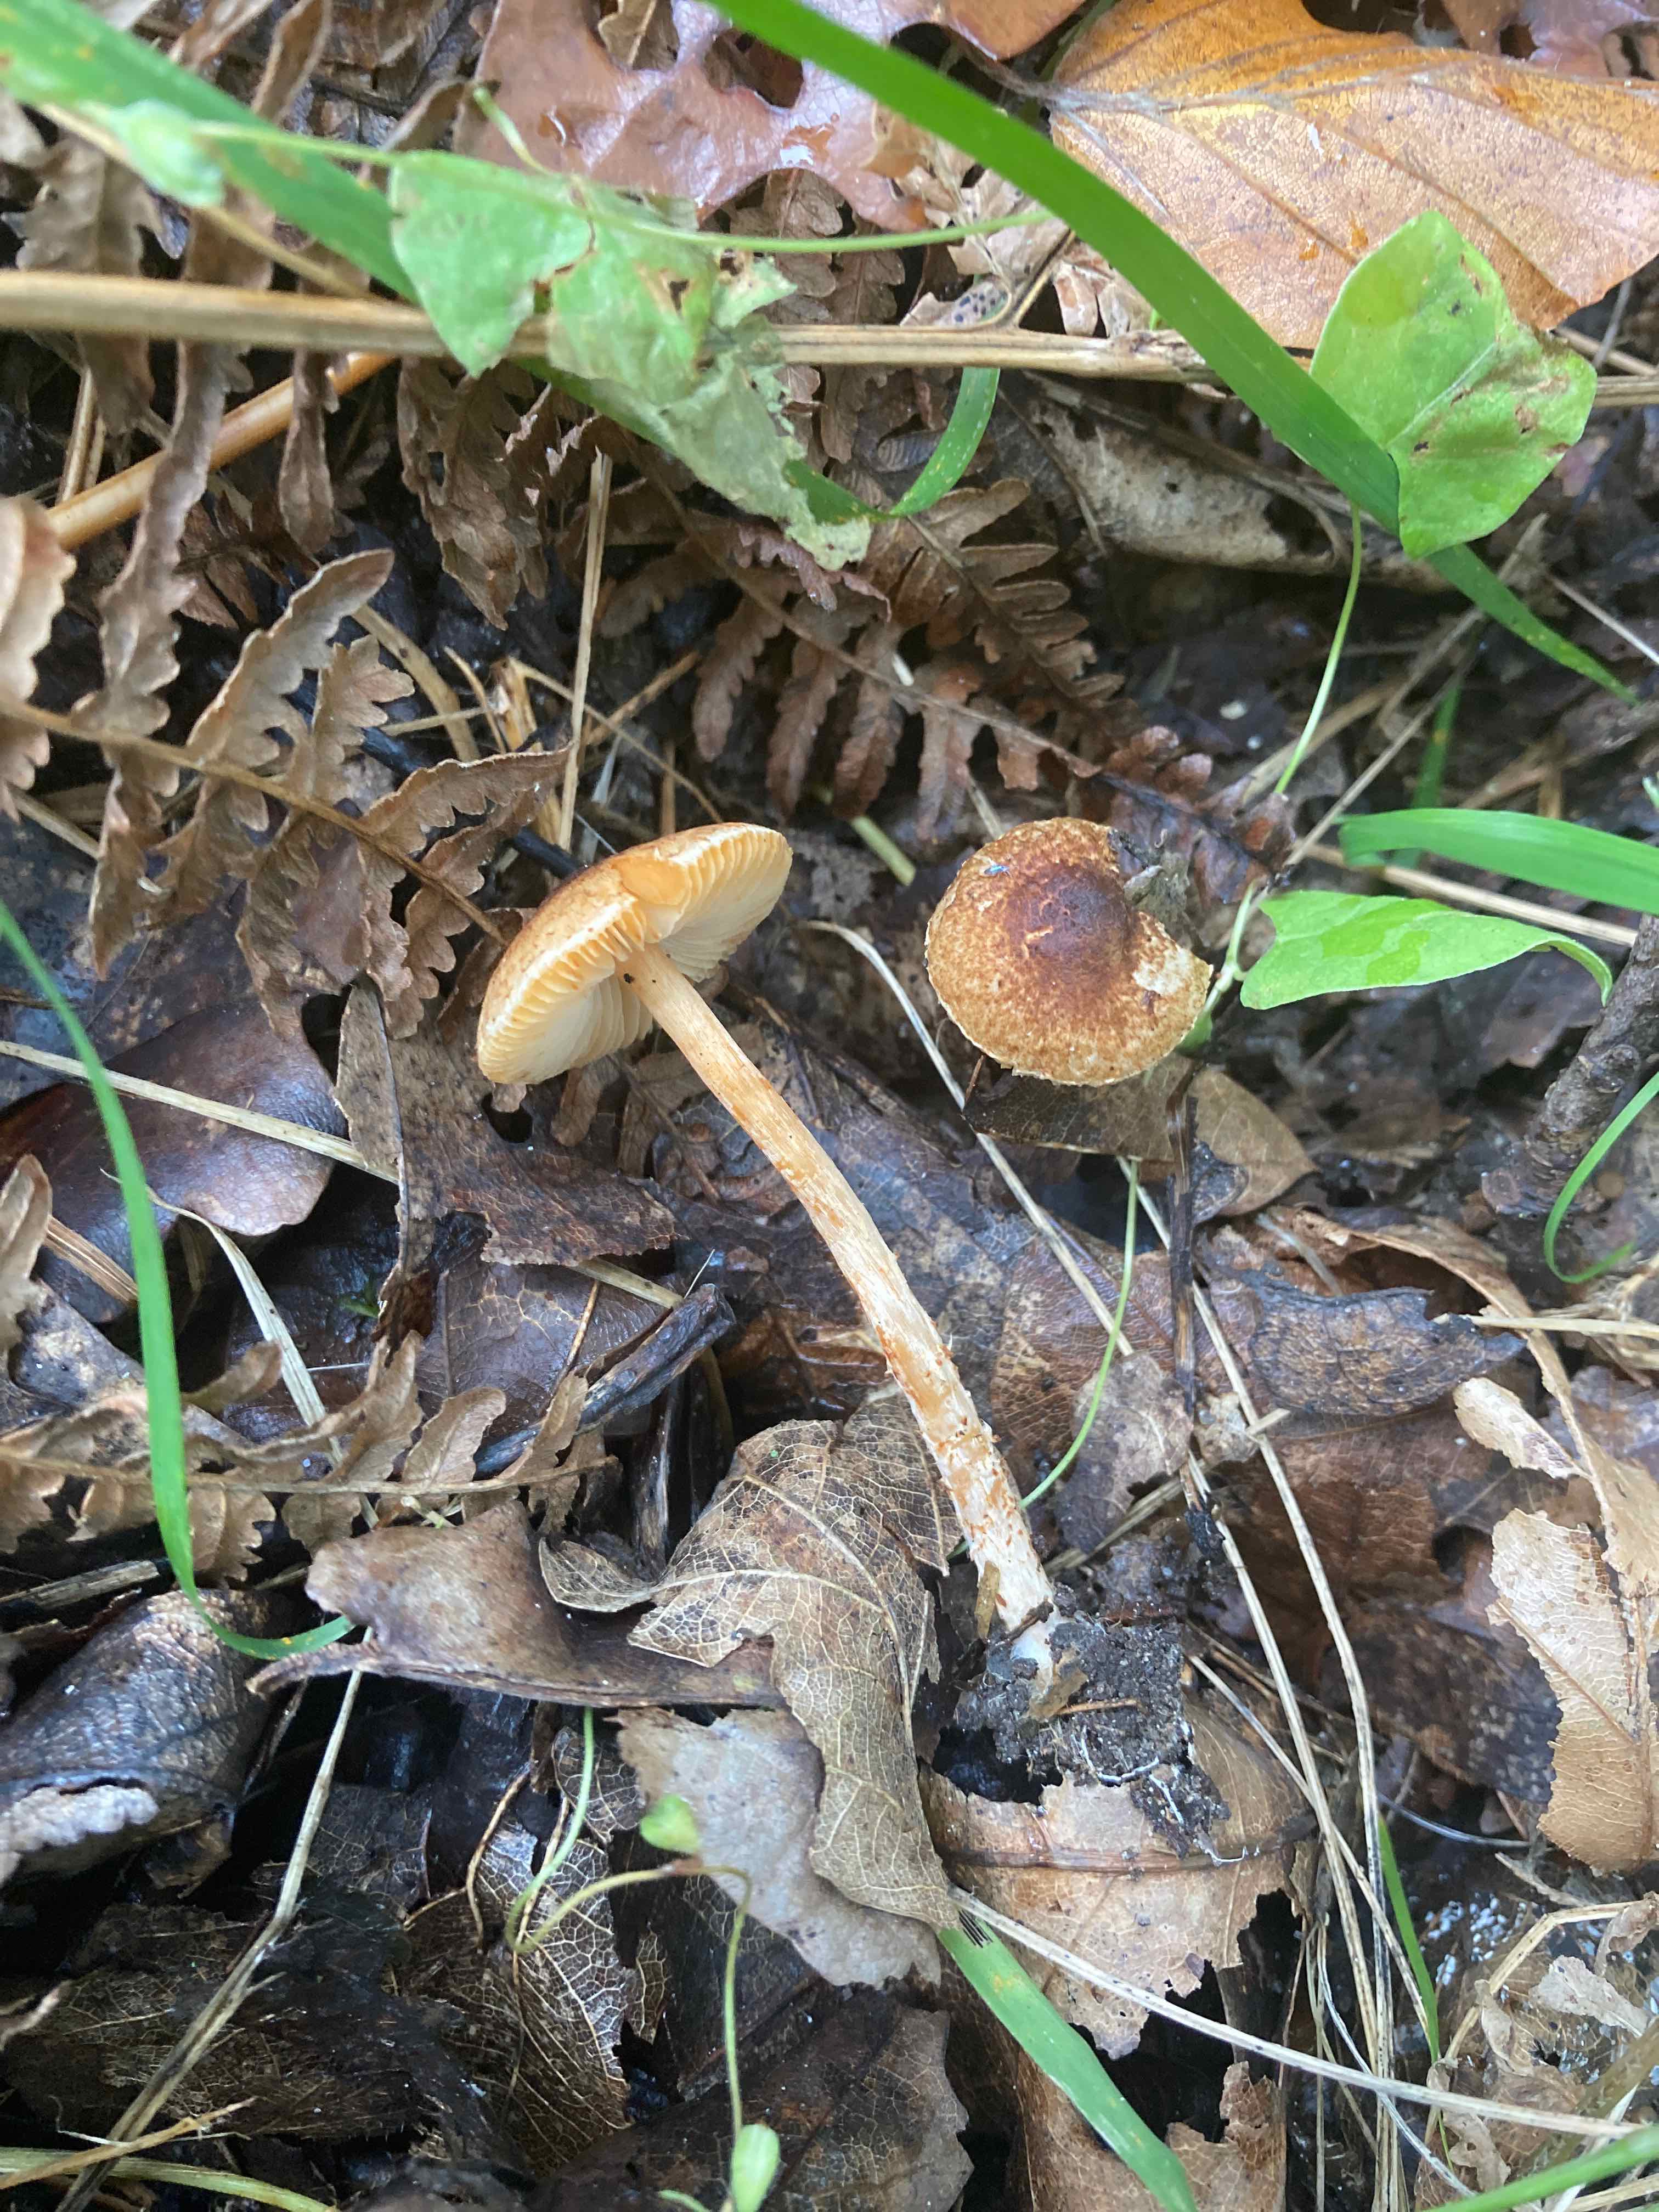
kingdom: Fungi
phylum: Basidiomycota
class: Agaricomycetes
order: Agaricales
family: Agaricaceae
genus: Lepiota
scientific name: Lepiota castanea
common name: kastaniebrun parasolhat
